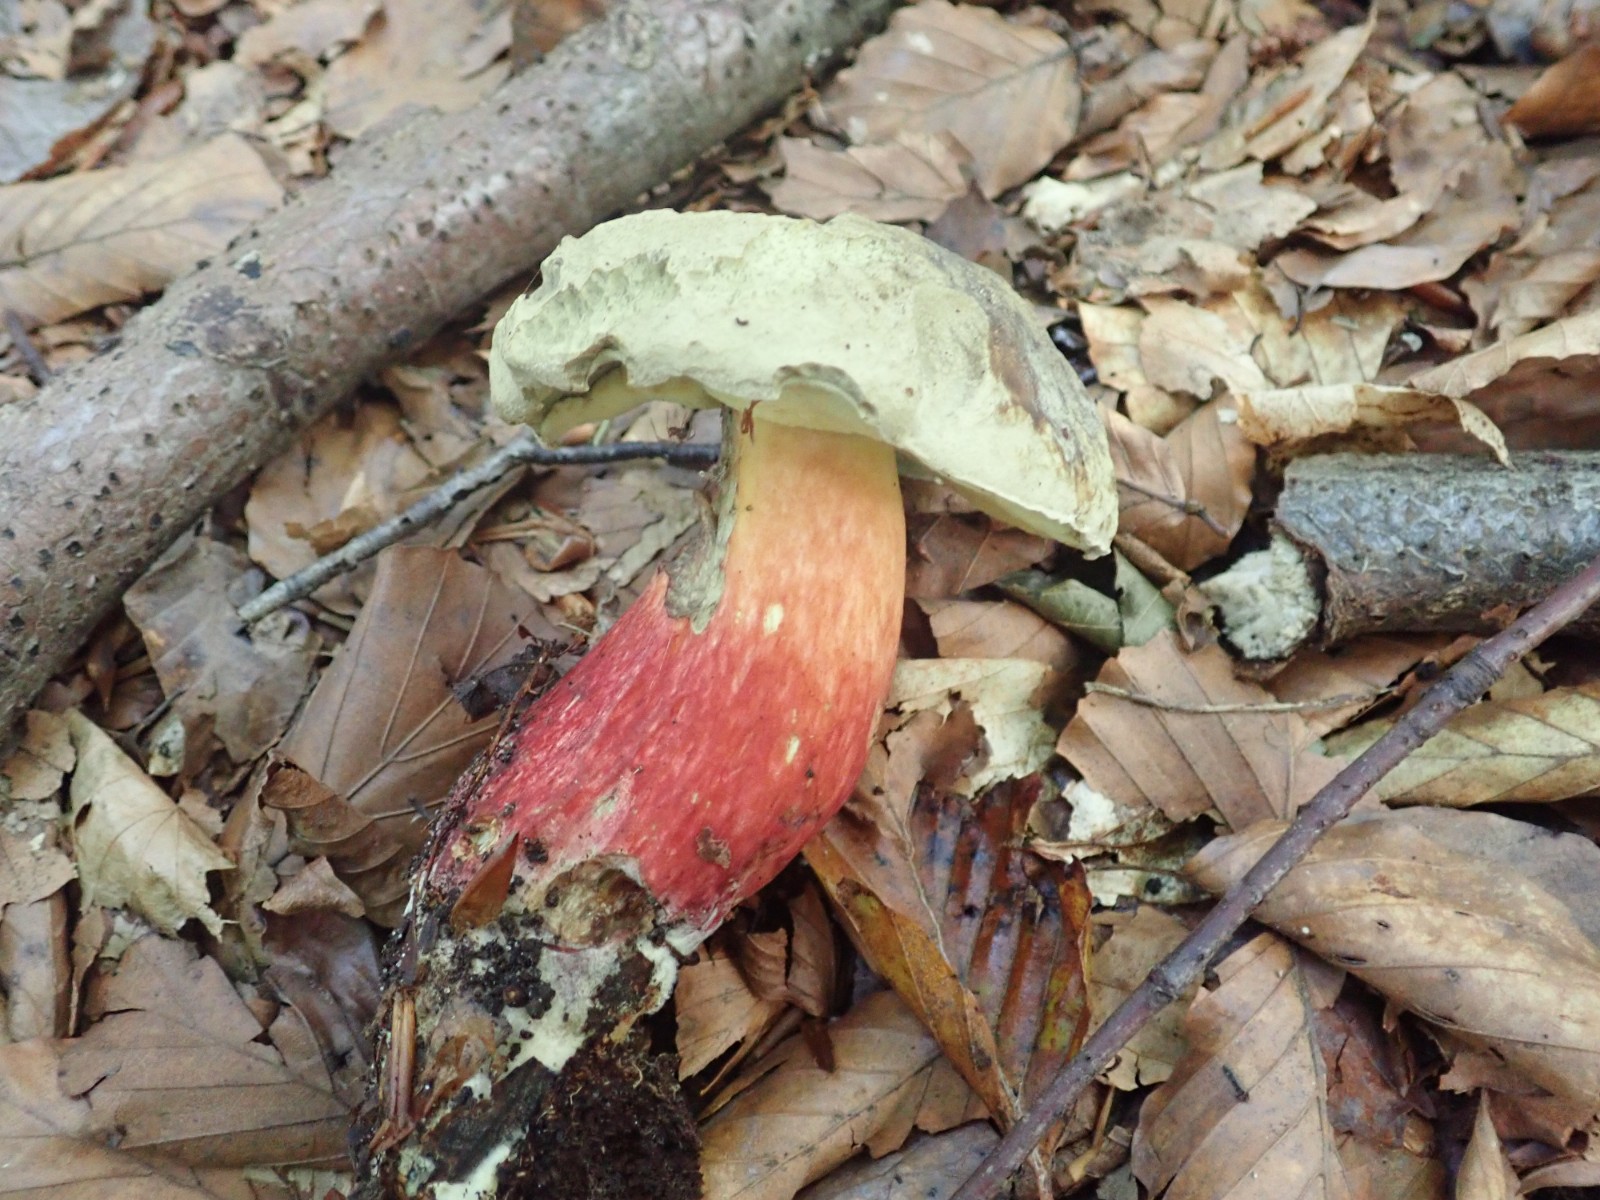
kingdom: Fungi
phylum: Basidiomycota
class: Agaricomycetes
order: Boletales
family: Boletaceae
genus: Caloboletus
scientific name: Caloboletus calopus
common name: skønfodet rørhat
